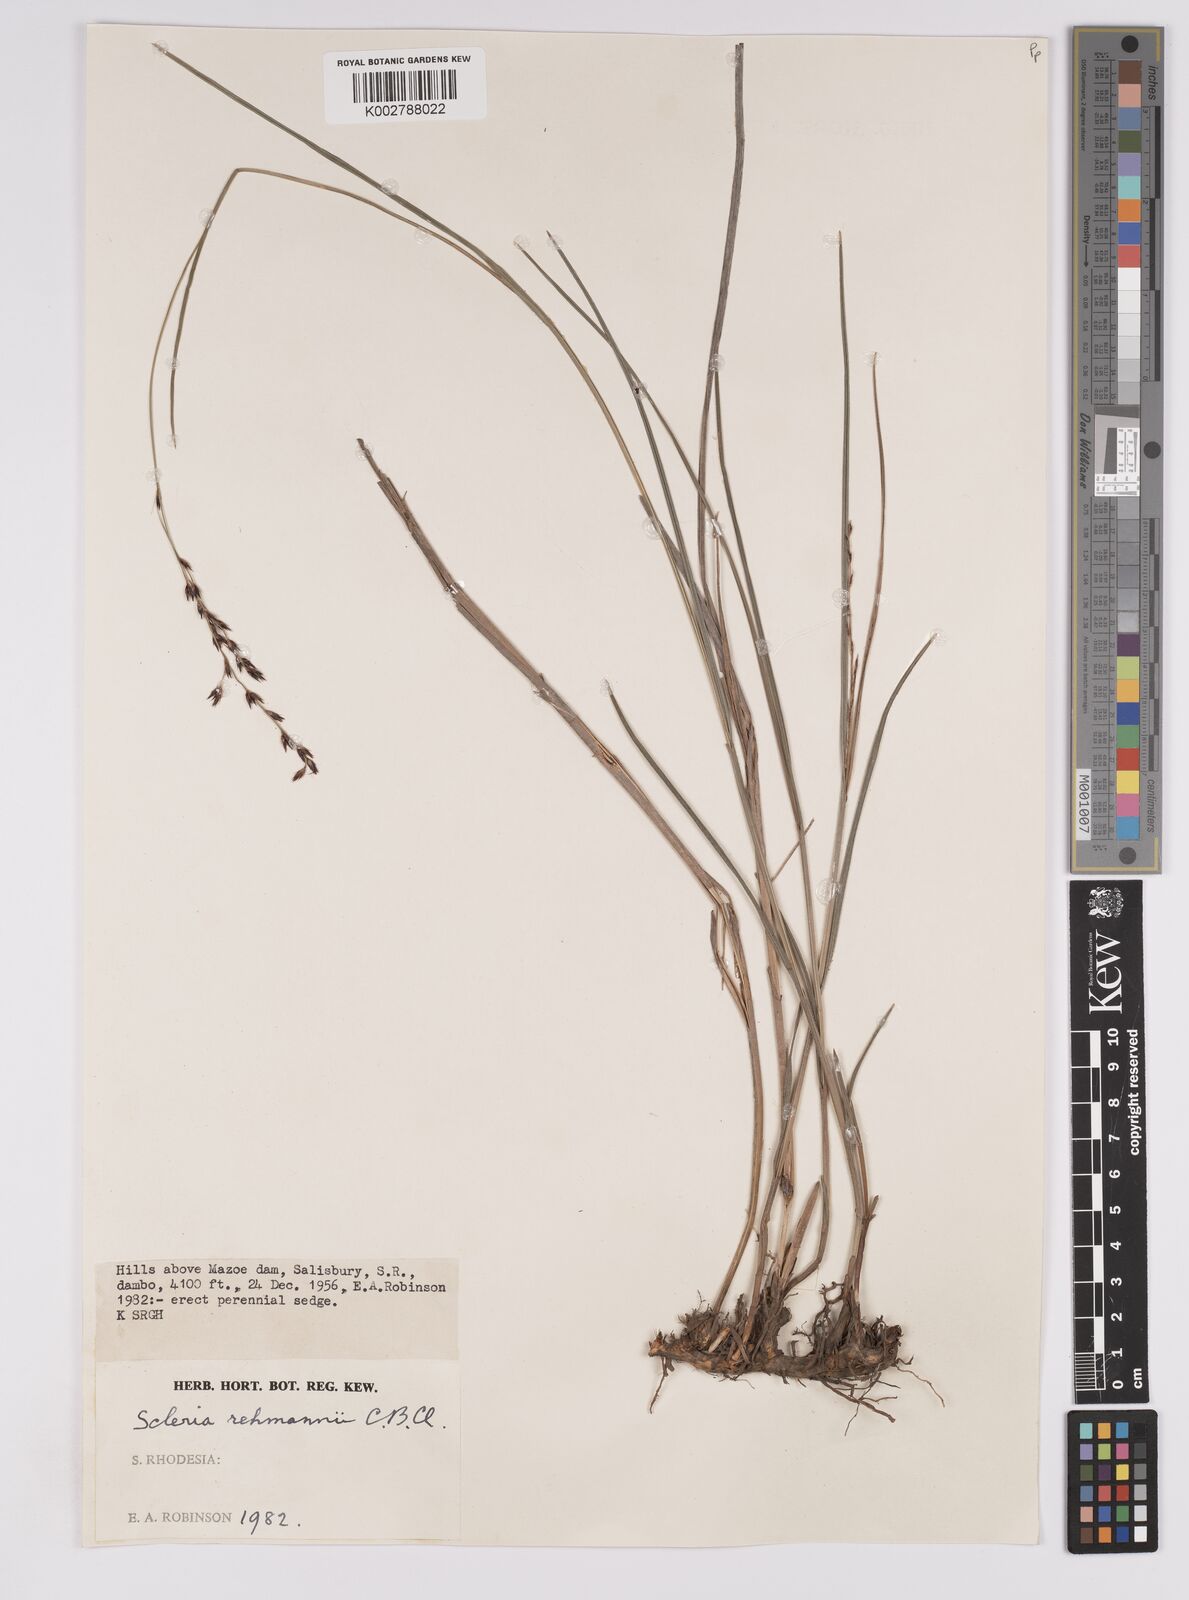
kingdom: Plantae
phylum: Tracheophyta
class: Liliopsida
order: Poales
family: Cyperaceae
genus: Scleria
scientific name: Scleria rehmannii
